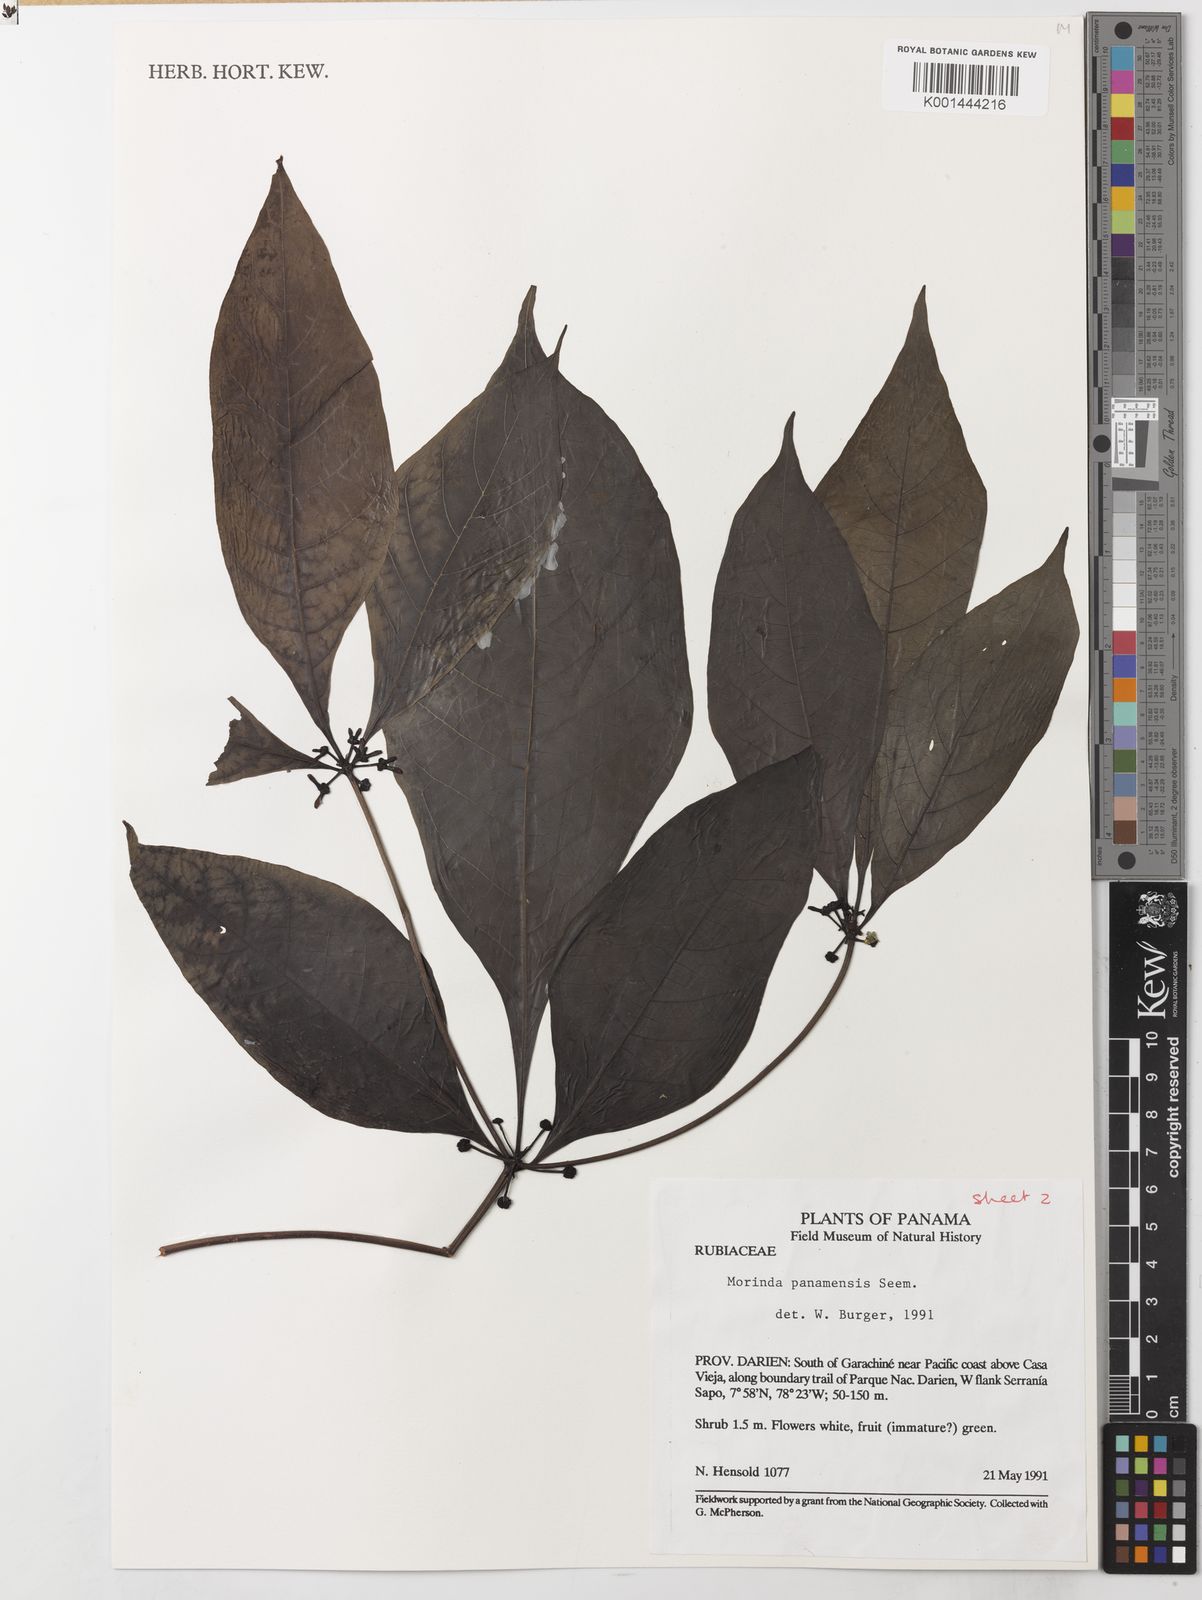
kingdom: Plantae
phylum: Tracheophyta
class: Magnoliopsida
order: Gentianales
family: Rubiaceae
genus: Morinda
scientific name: Morinda panamensis
